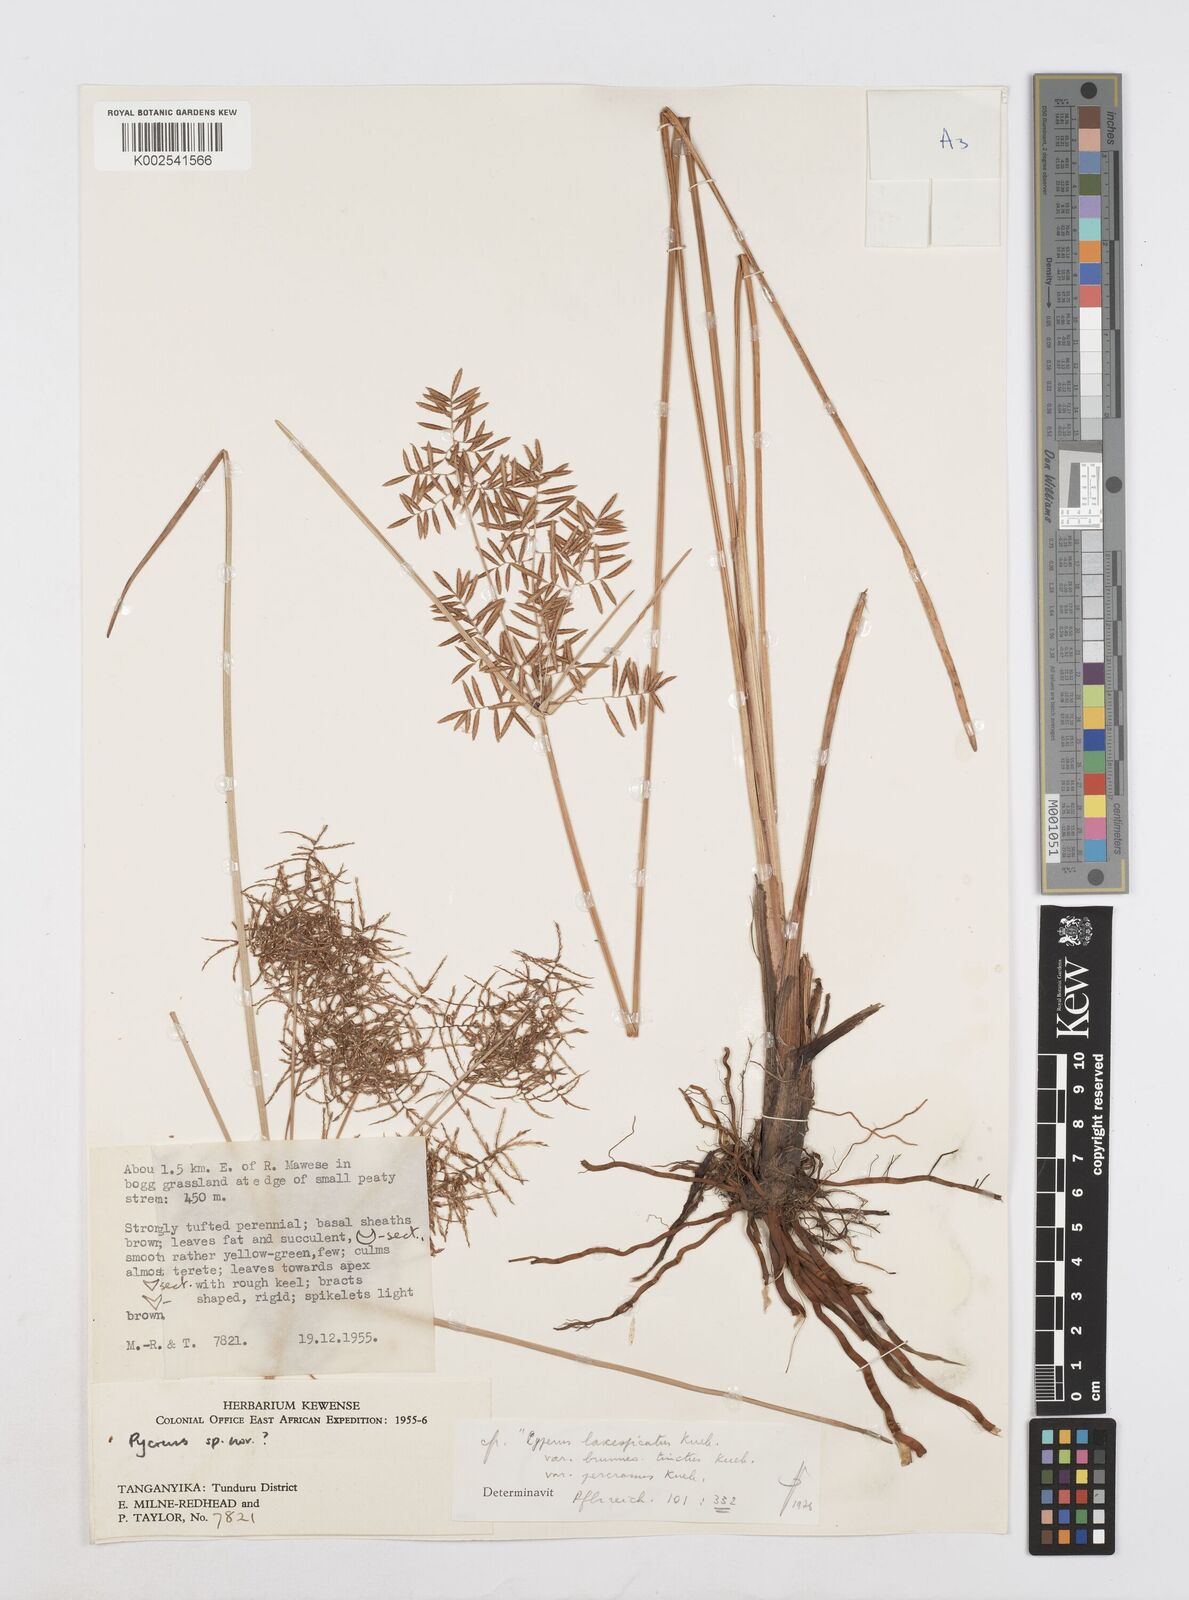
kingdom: Plantae
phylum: Tracheophyta
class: Liliopsida
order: Poales
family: Cyperaceae
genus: Cyperus
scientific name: Cyperus intactus
